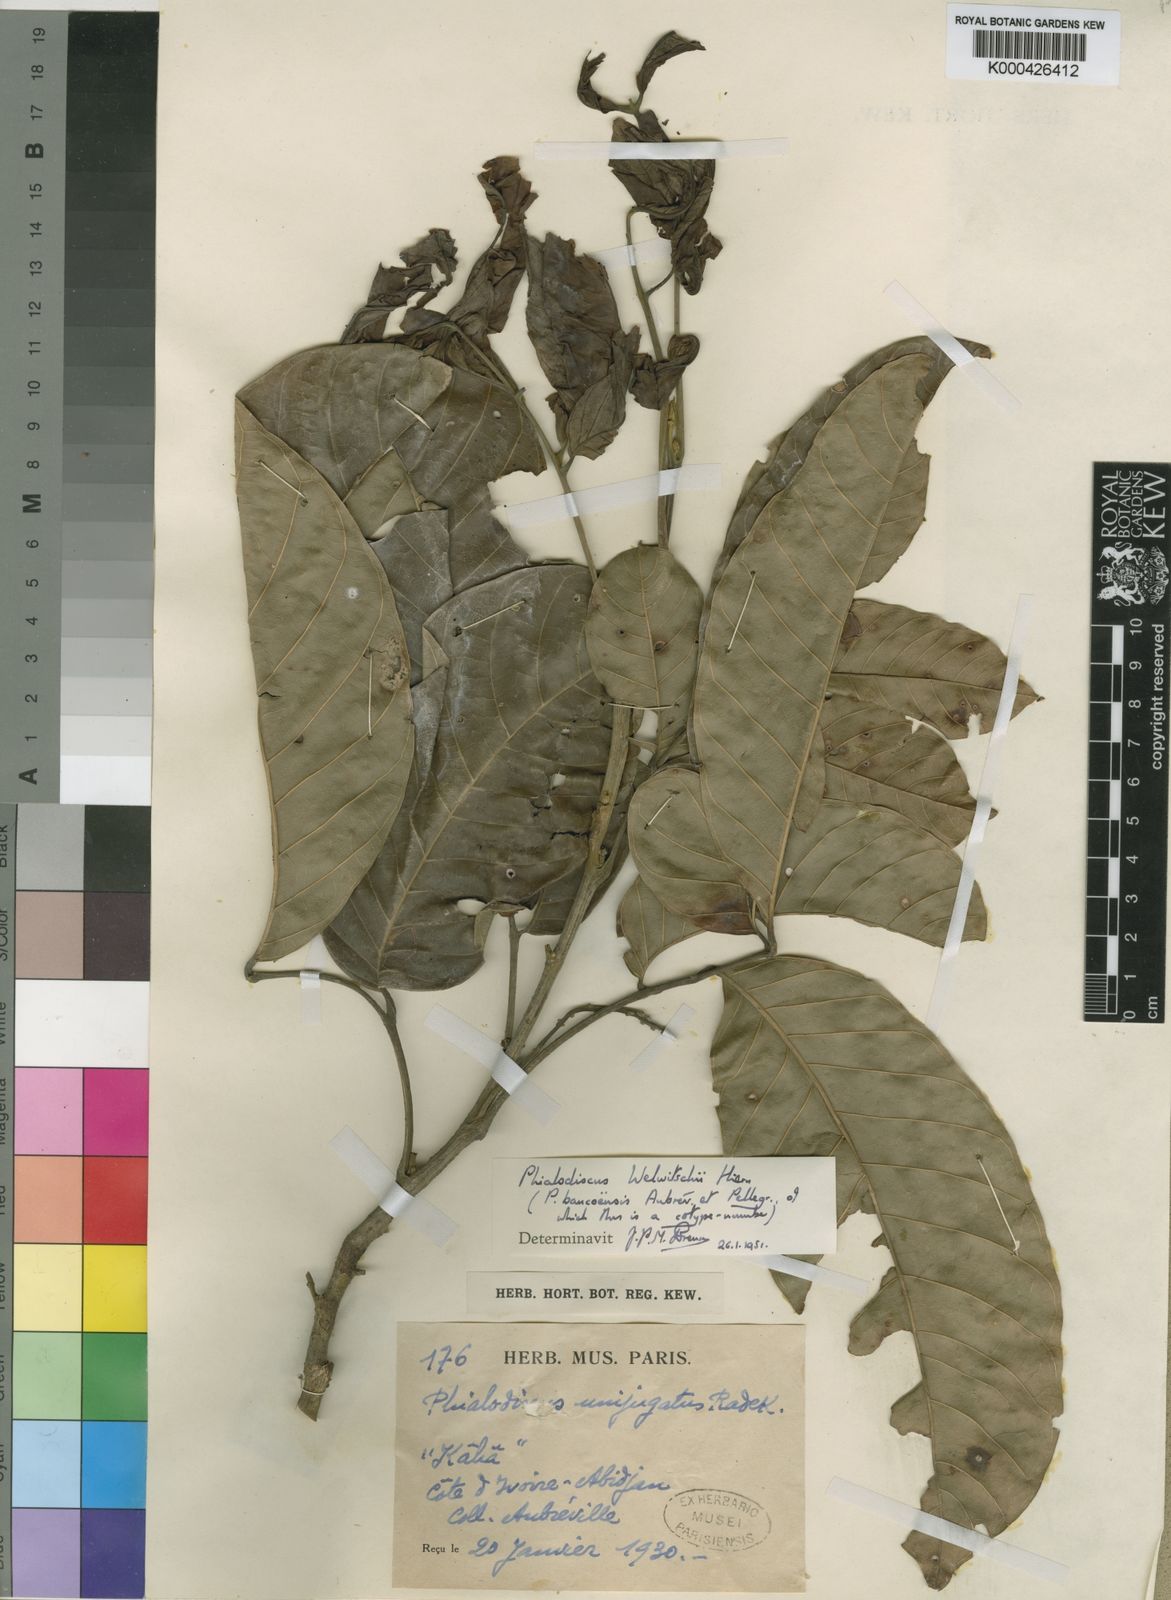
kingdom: Plantae
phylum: Tracheophyta
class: Magnoliopsida
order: Sapindales
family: Sapindaceae
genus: Blighia
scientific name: Blighia welwitschii
